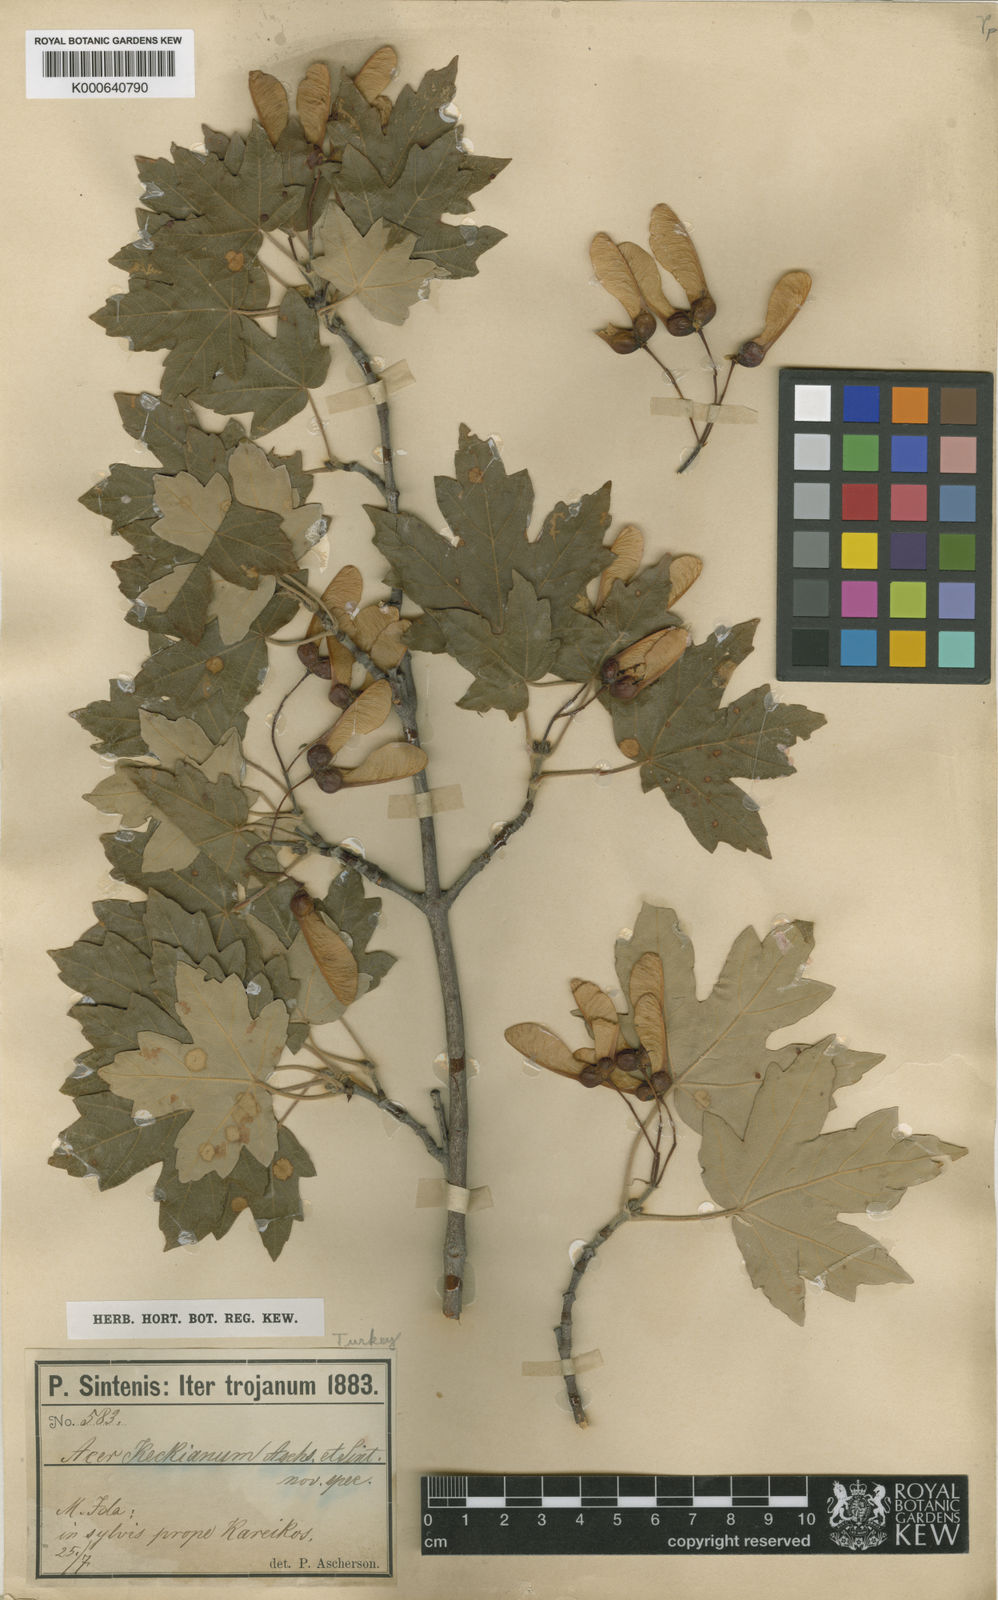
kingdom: Plantae
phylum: Tracheophyta
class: Magnoliopsida
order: Sapindales
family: Sapindaceae
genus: Acer
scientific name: Acer
